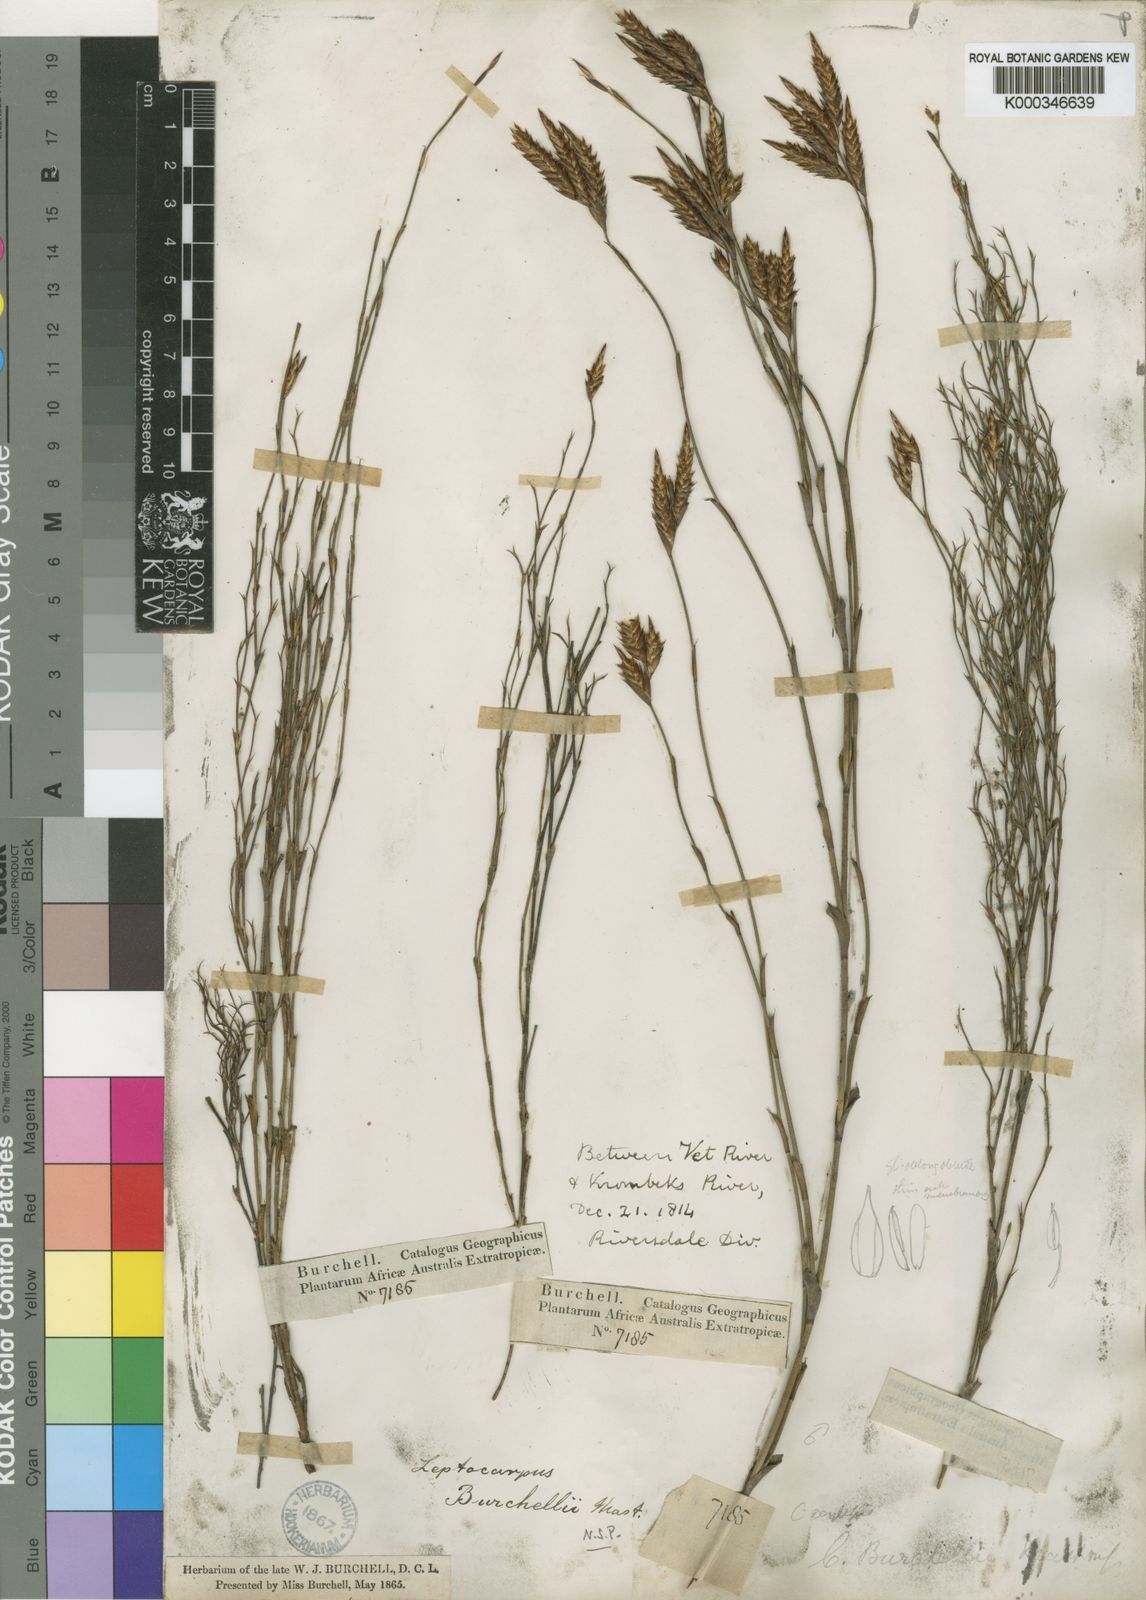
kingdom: Plantae
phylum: Tracheophyta
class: Liliopsida
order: Poales
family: Restionaceae
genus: Restio
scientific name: Restio albotuberculatus
